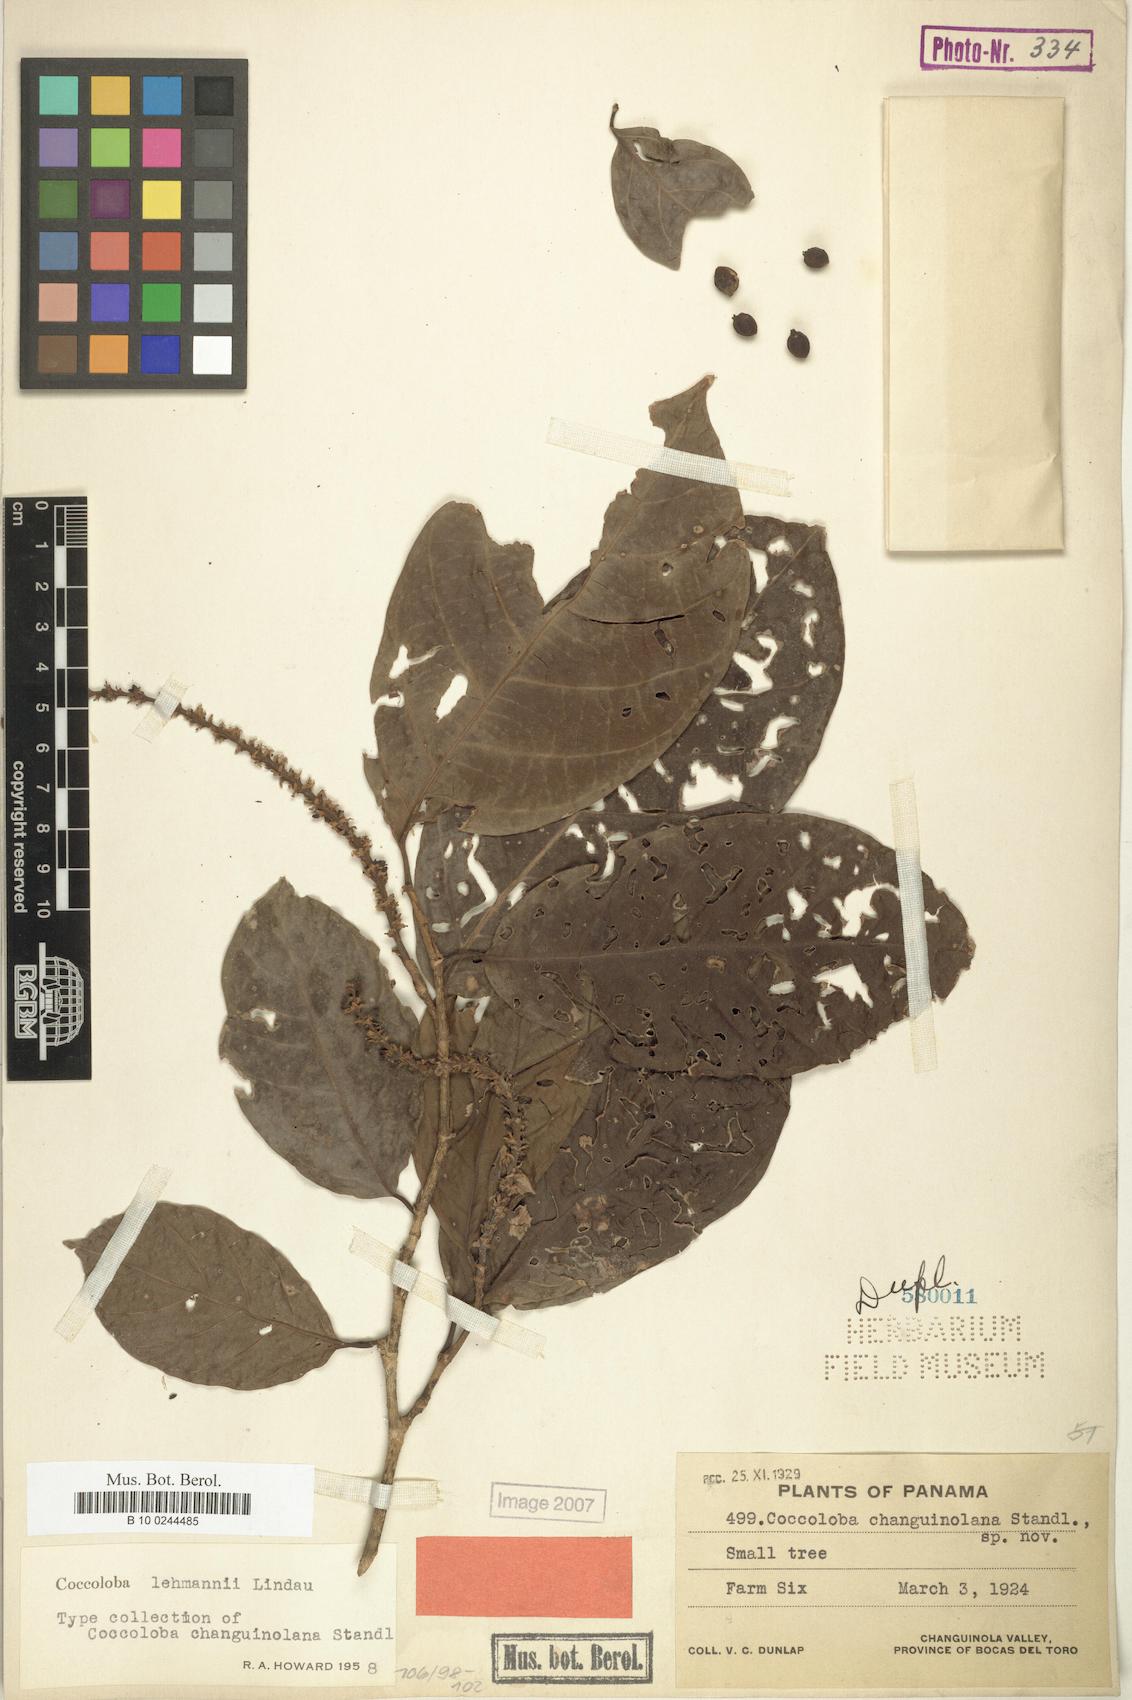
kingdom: Plantae
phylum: Tracheophyta
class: Magnoliopsida
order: Caryophyllales
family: Polygonaceae
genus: Coccoloba
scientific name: Coccoloba lehmannii
